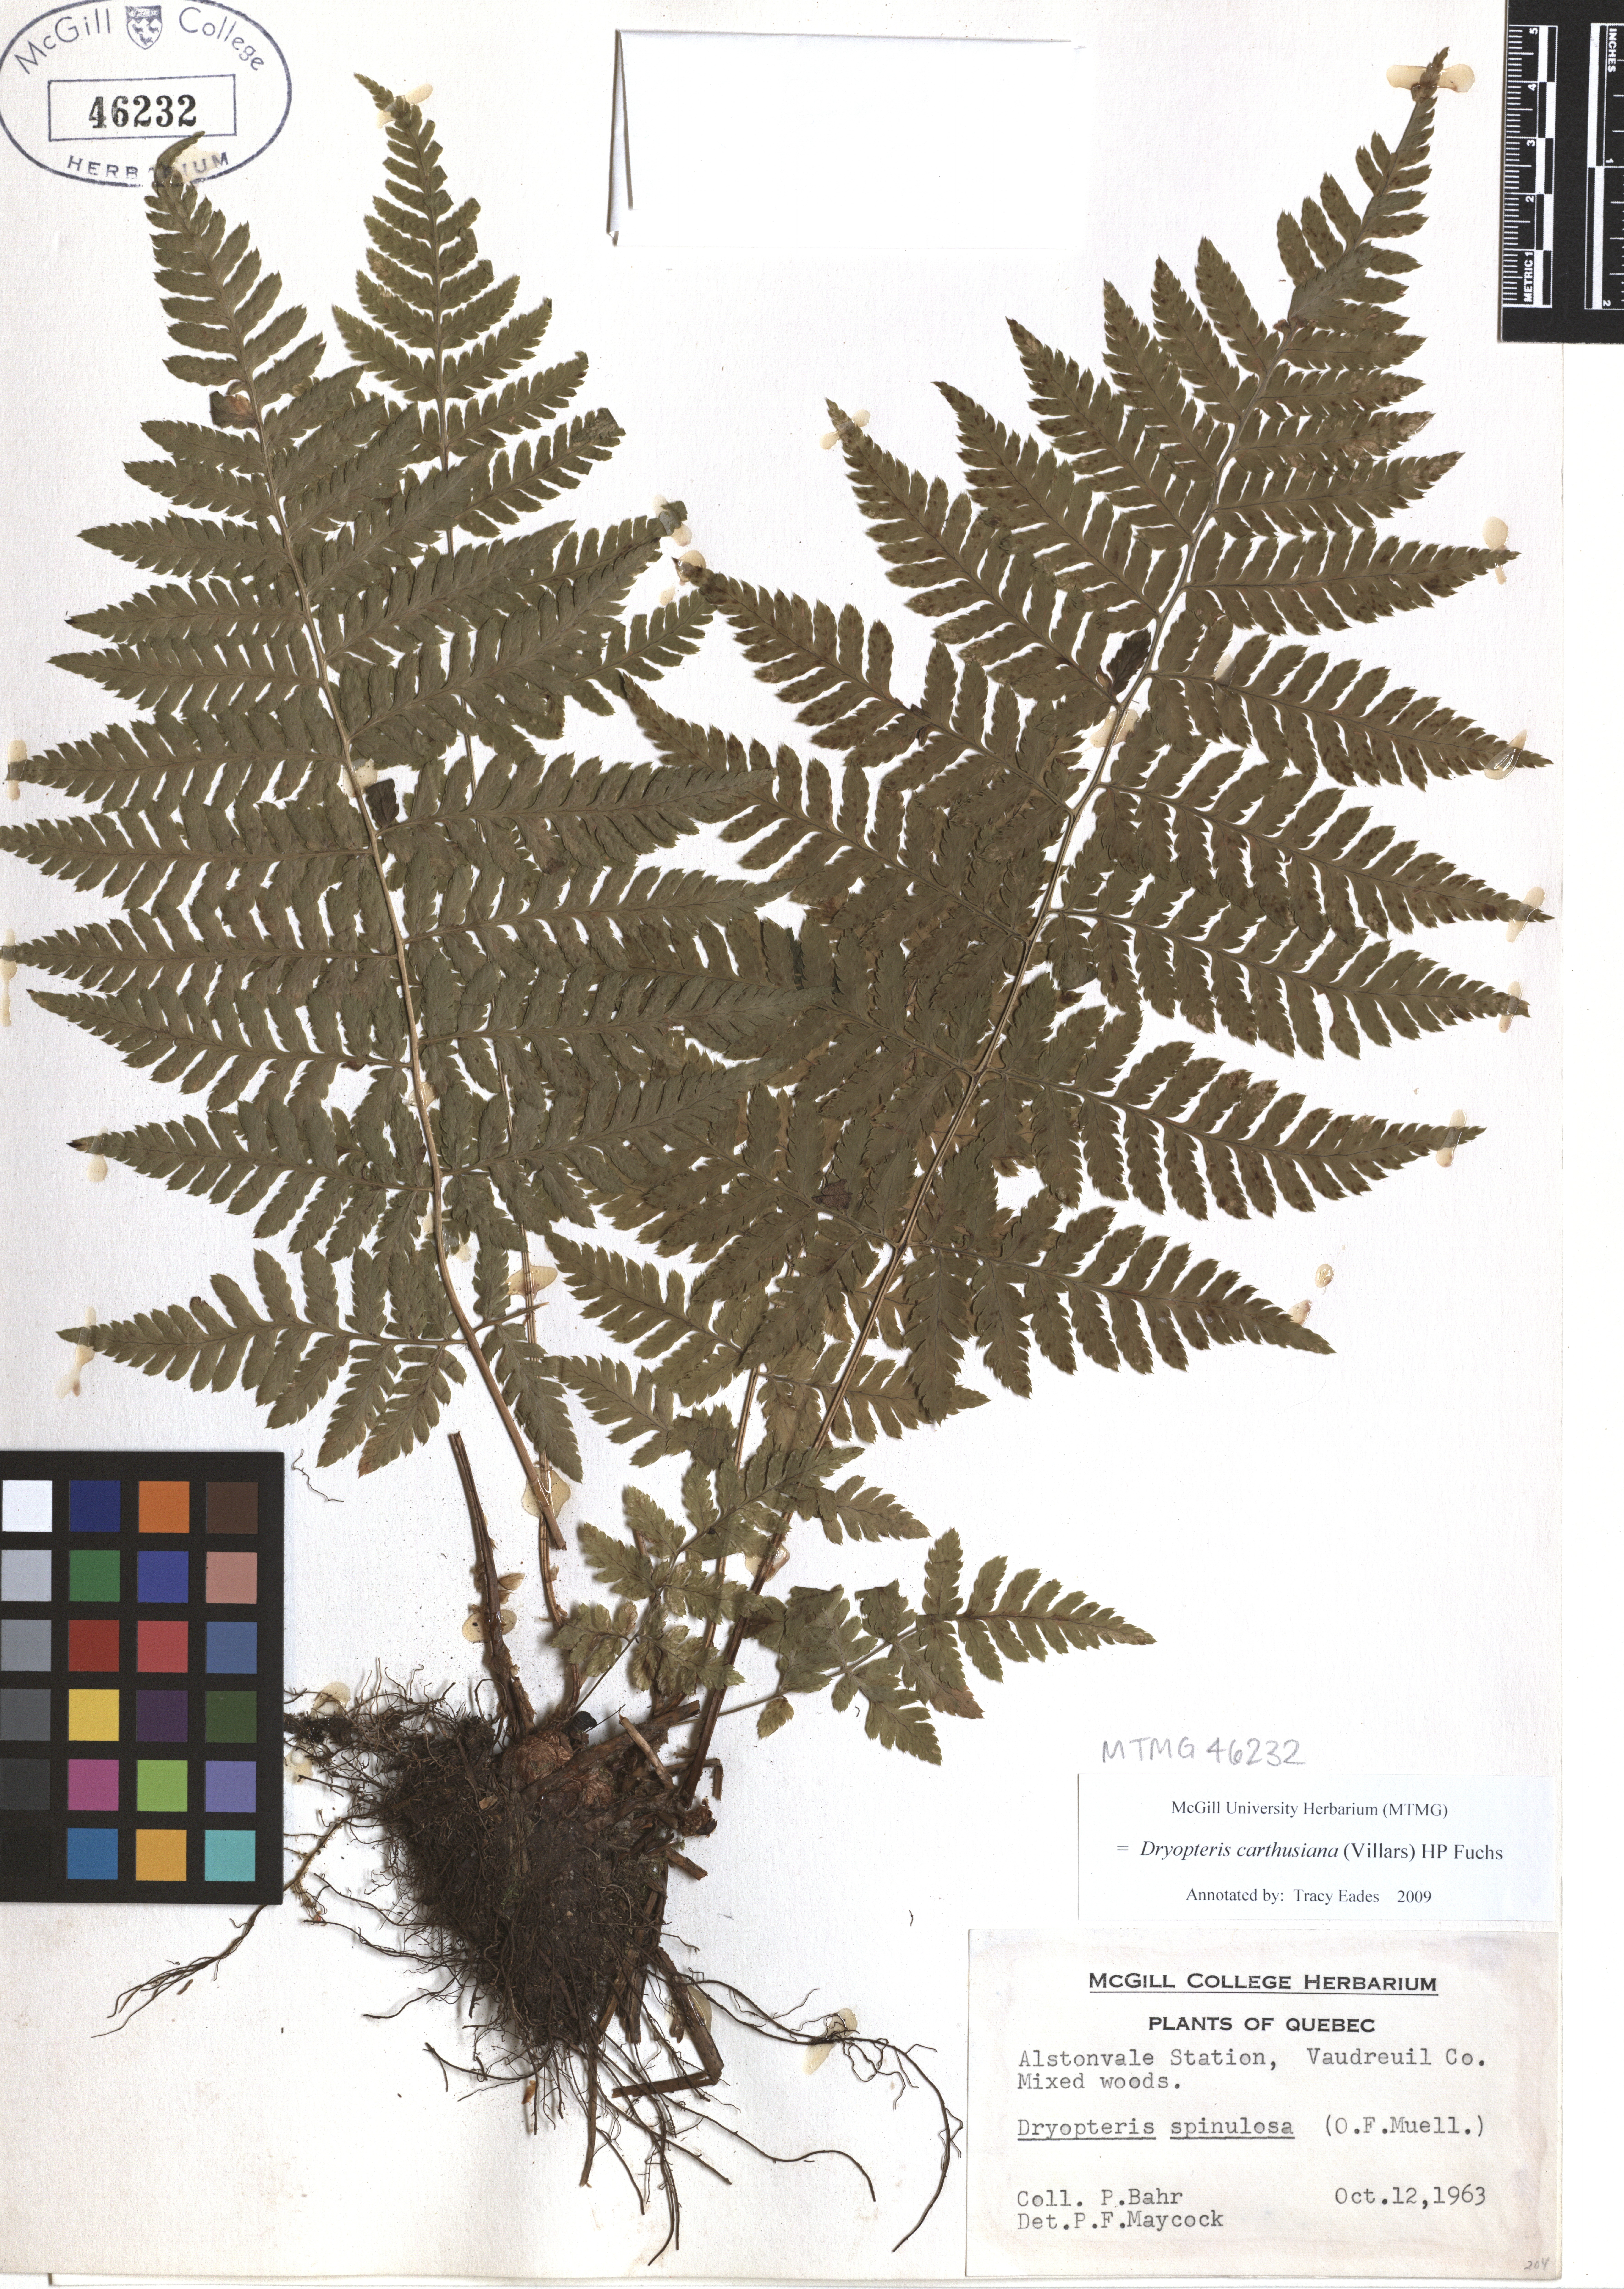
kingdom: Plantae
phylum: Tracheophyta
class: Polypodiopsida
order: Polypodiales
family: Dryopteridaceae
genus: Dryopteris
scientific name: Dryopteris carthusiana
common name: Narrow buckler-fern
